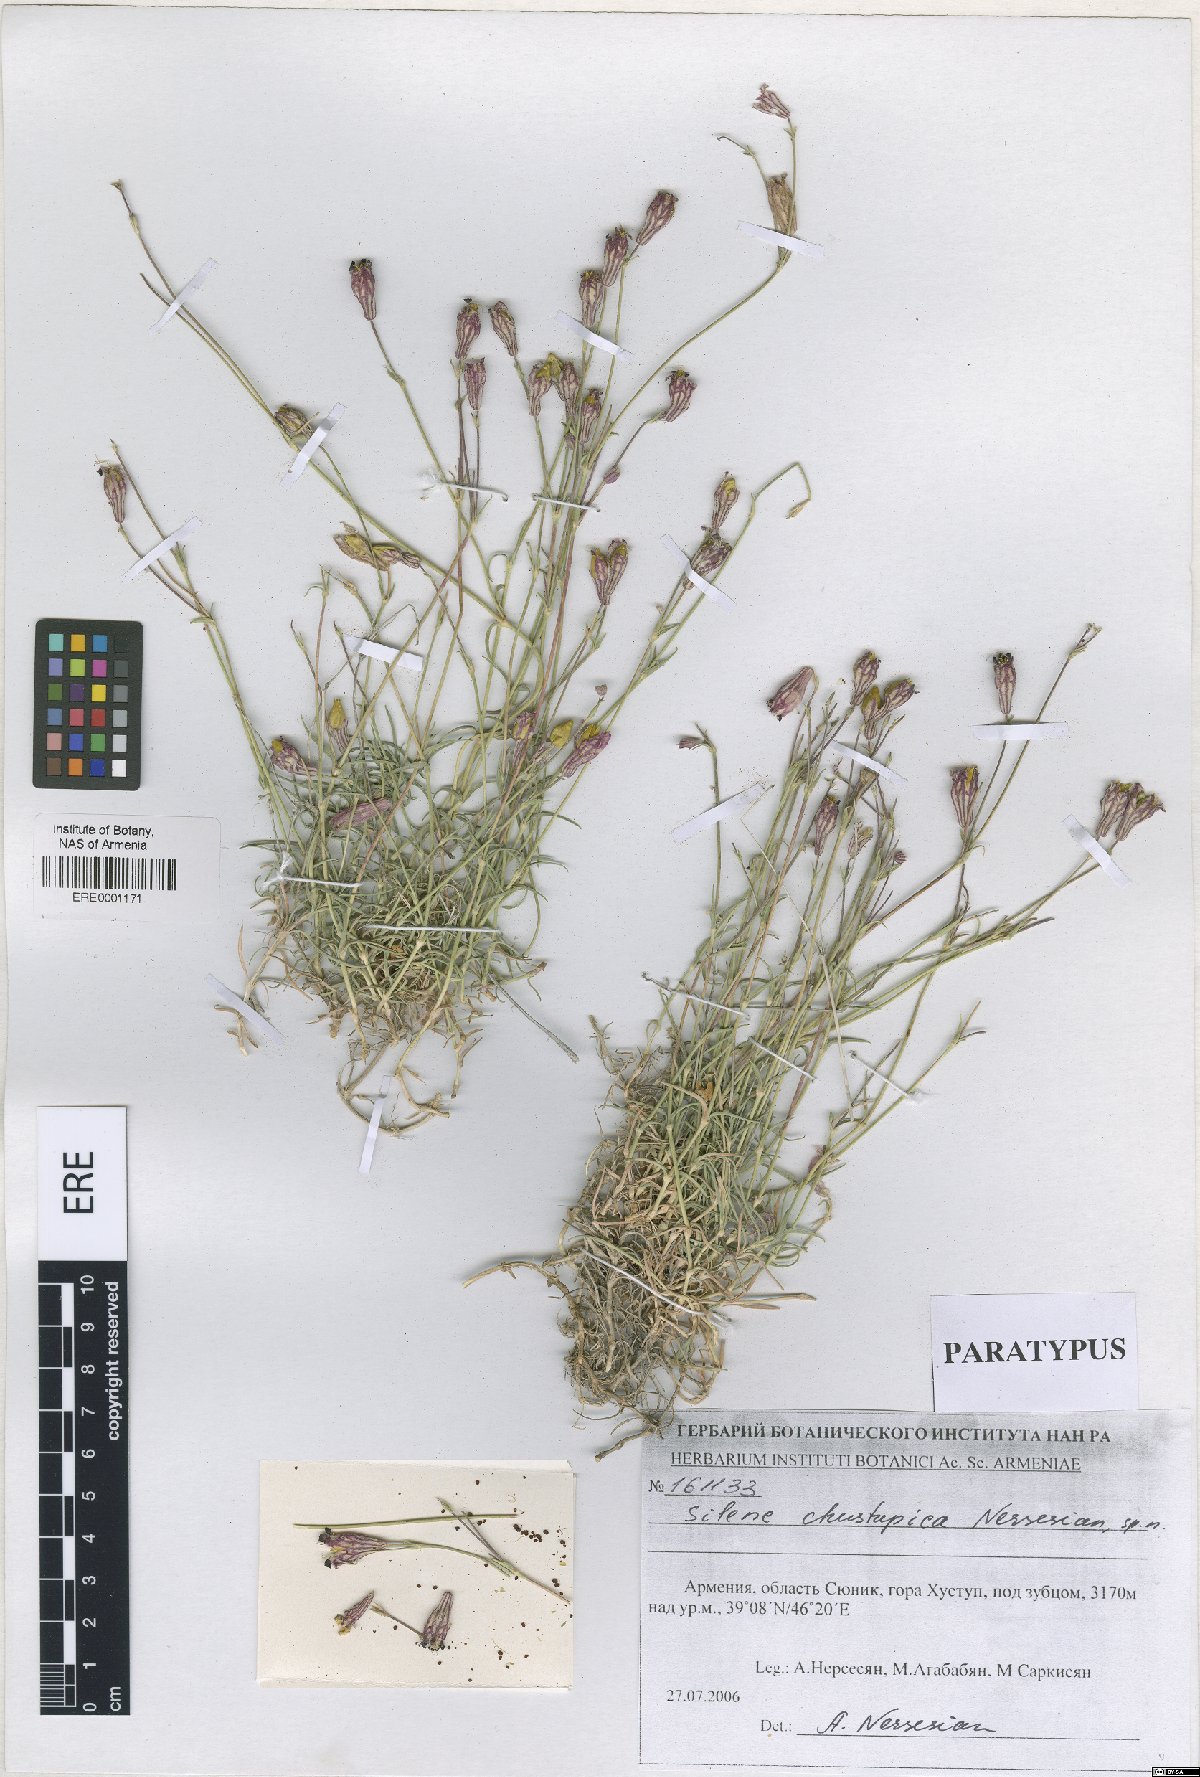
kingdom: Plantae
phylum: Tracheophyta
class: Magnoliopsida
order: Caryophyllales
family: Caryophyllaceae
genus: Silene
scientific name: Silene pungens
